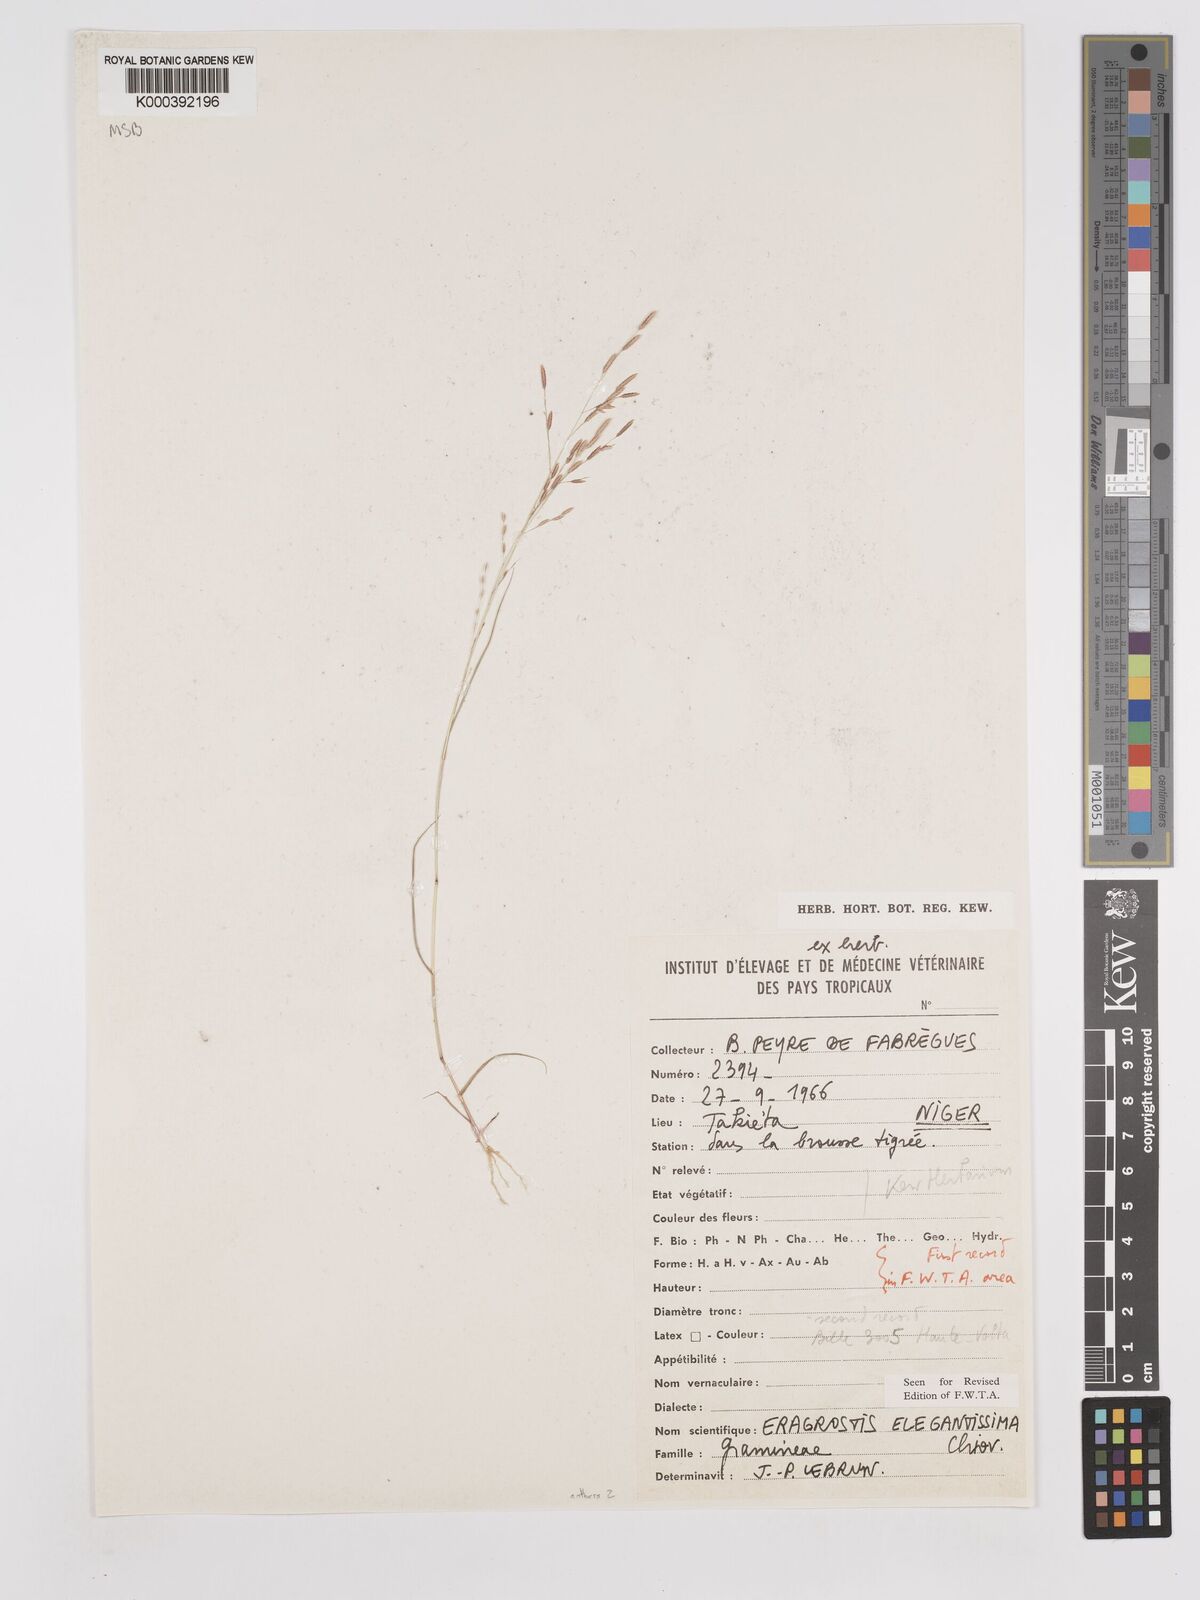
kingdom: Plantae
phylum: Tracheophyta
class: Liliopsida
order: Poales
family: Poaceae
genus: Eragrostis
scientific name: Eragrostis elegantissima
